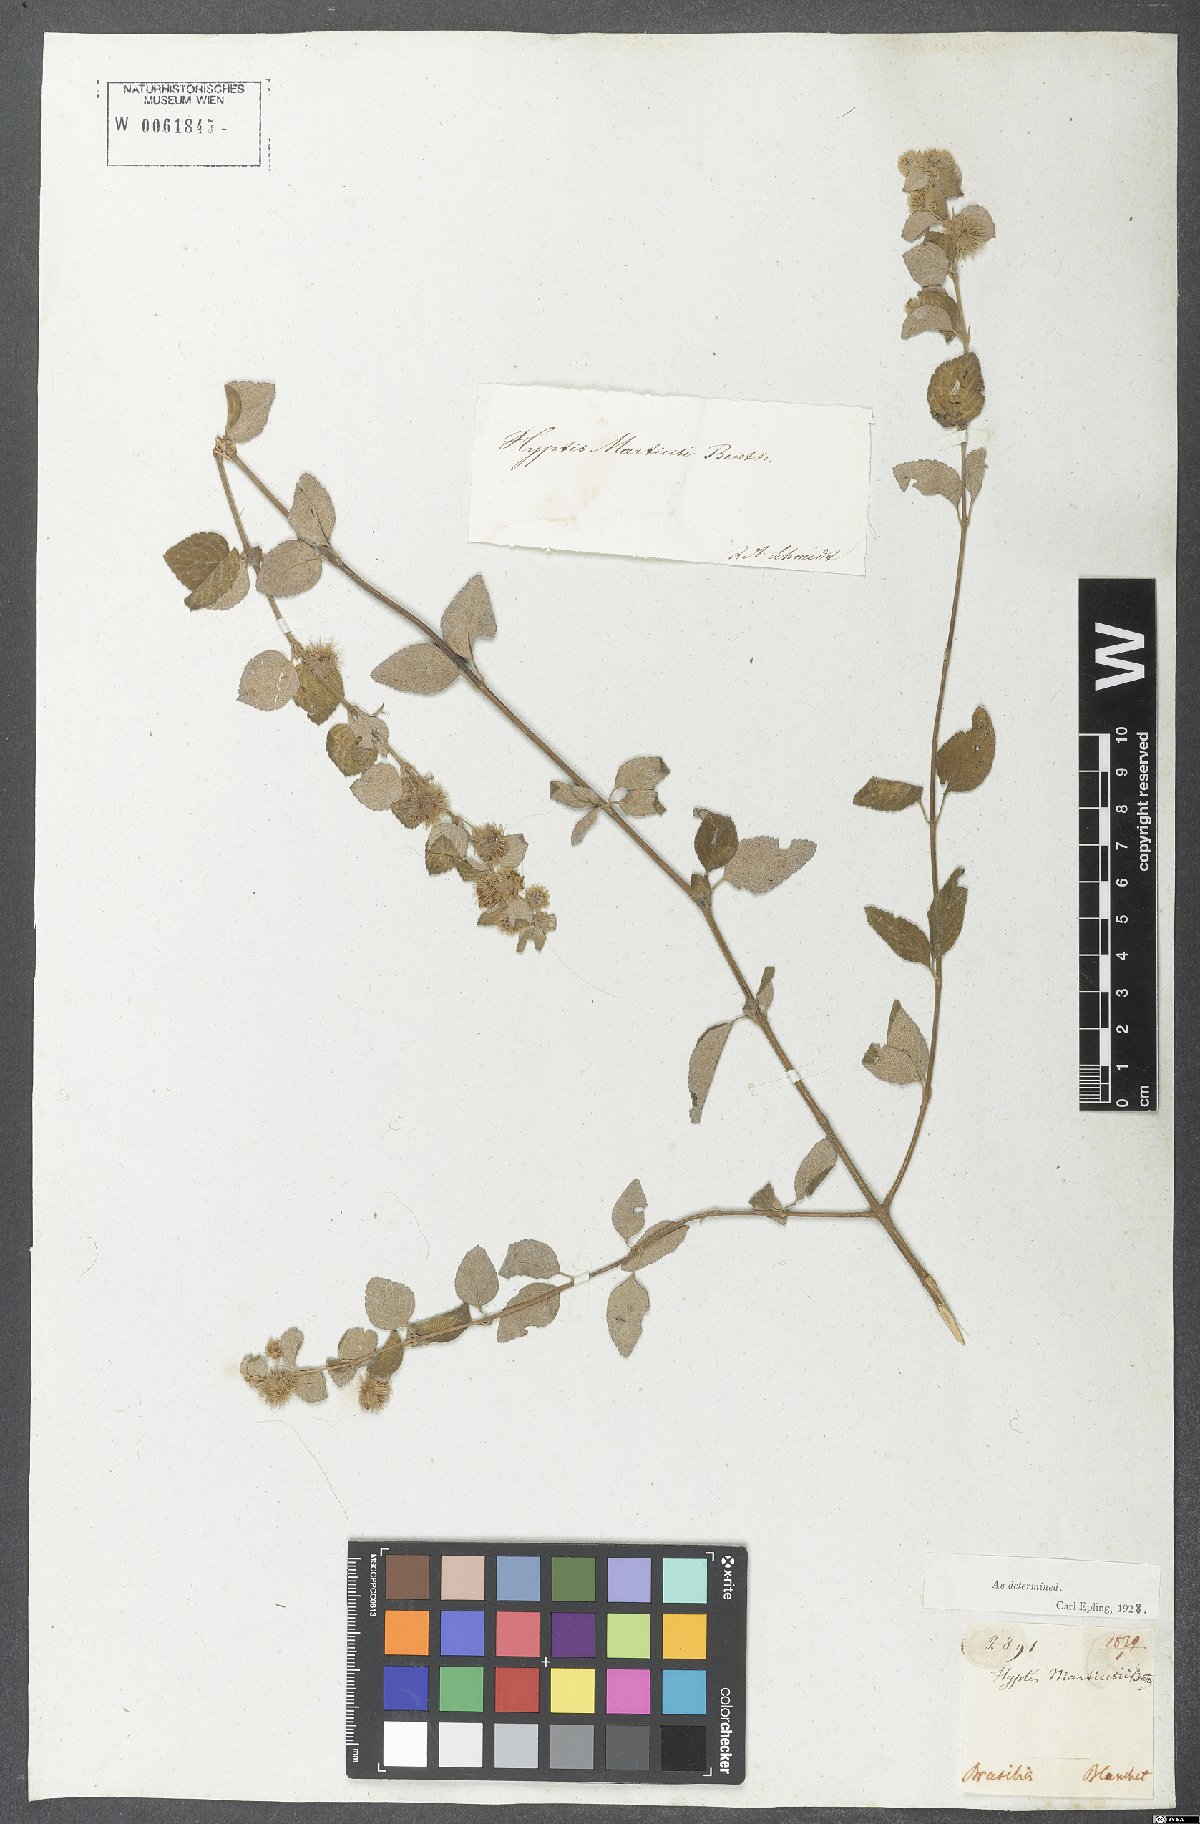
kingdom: Plantae
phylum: Tracheophyta
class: Magnoliopsida
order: Lamiales
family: Lamiaceae
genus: Medusantha
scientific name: Medusantha martiusii
